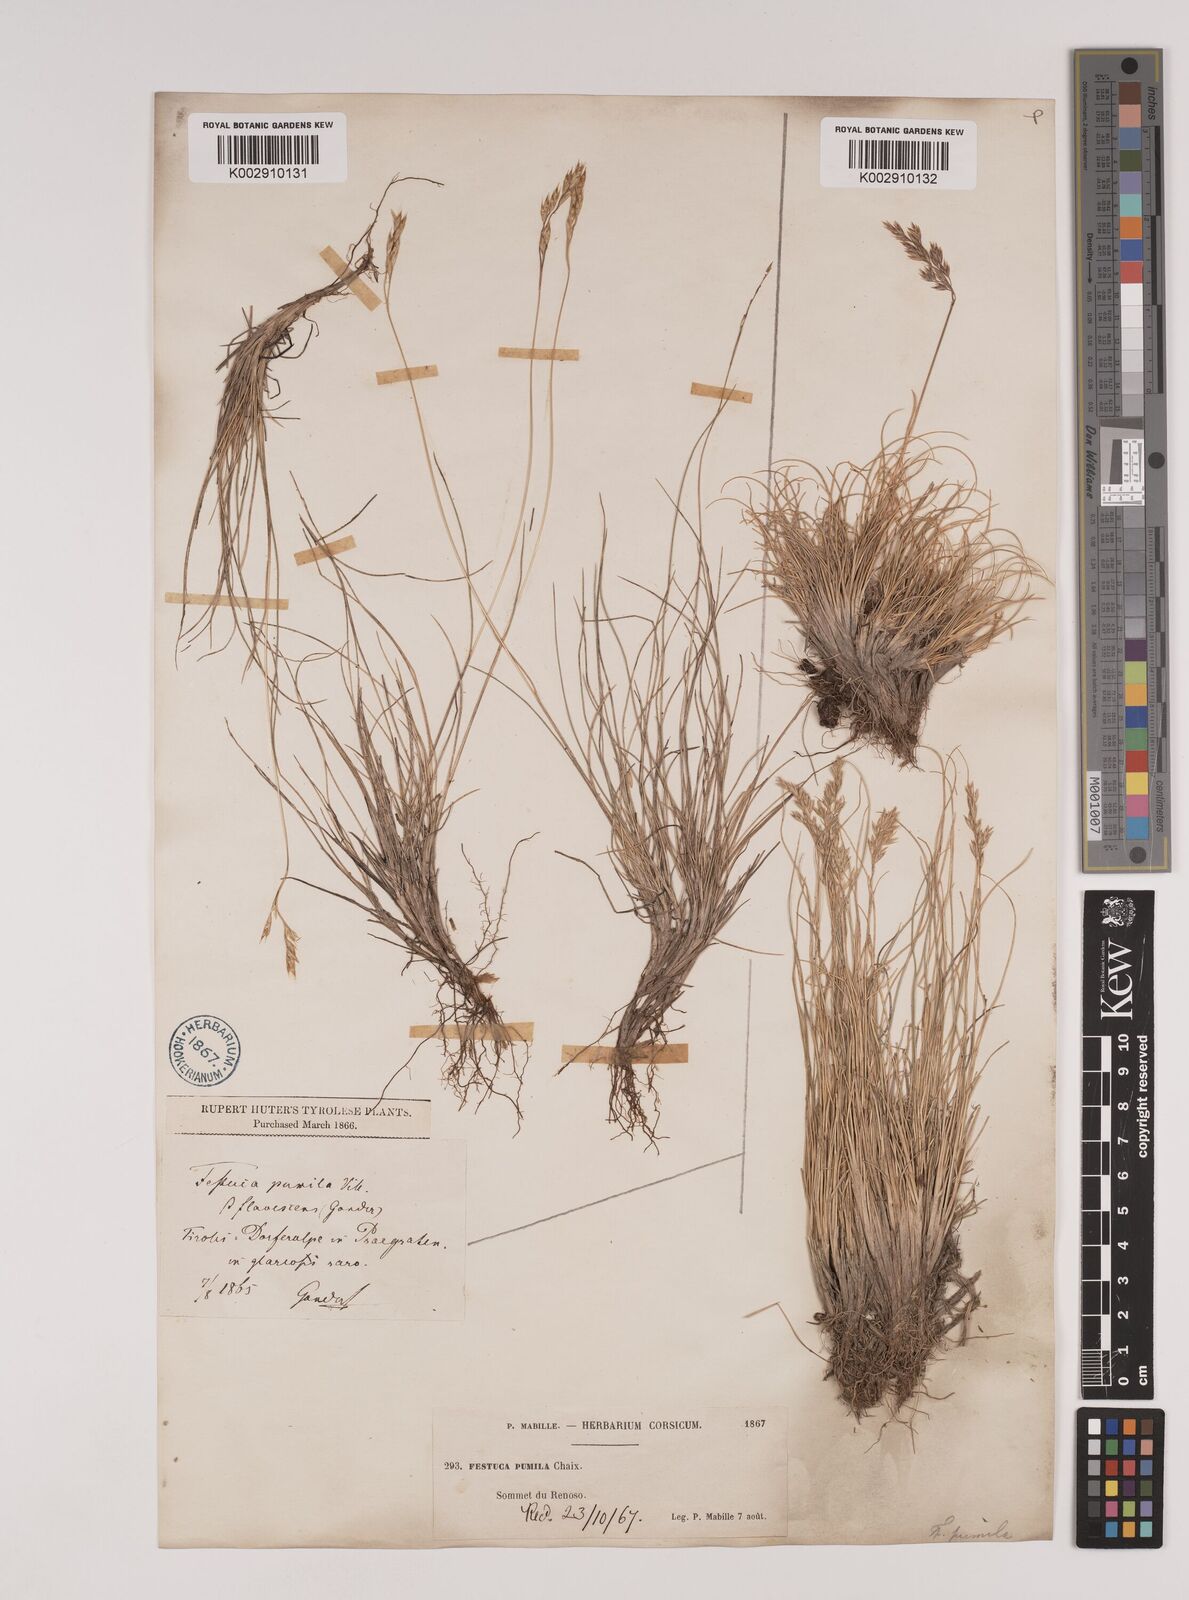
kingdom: Plantae
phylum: Tracheophyta
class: Liliopsida
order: Poales
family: Poaceae
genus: Festuca
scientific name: Festuca
